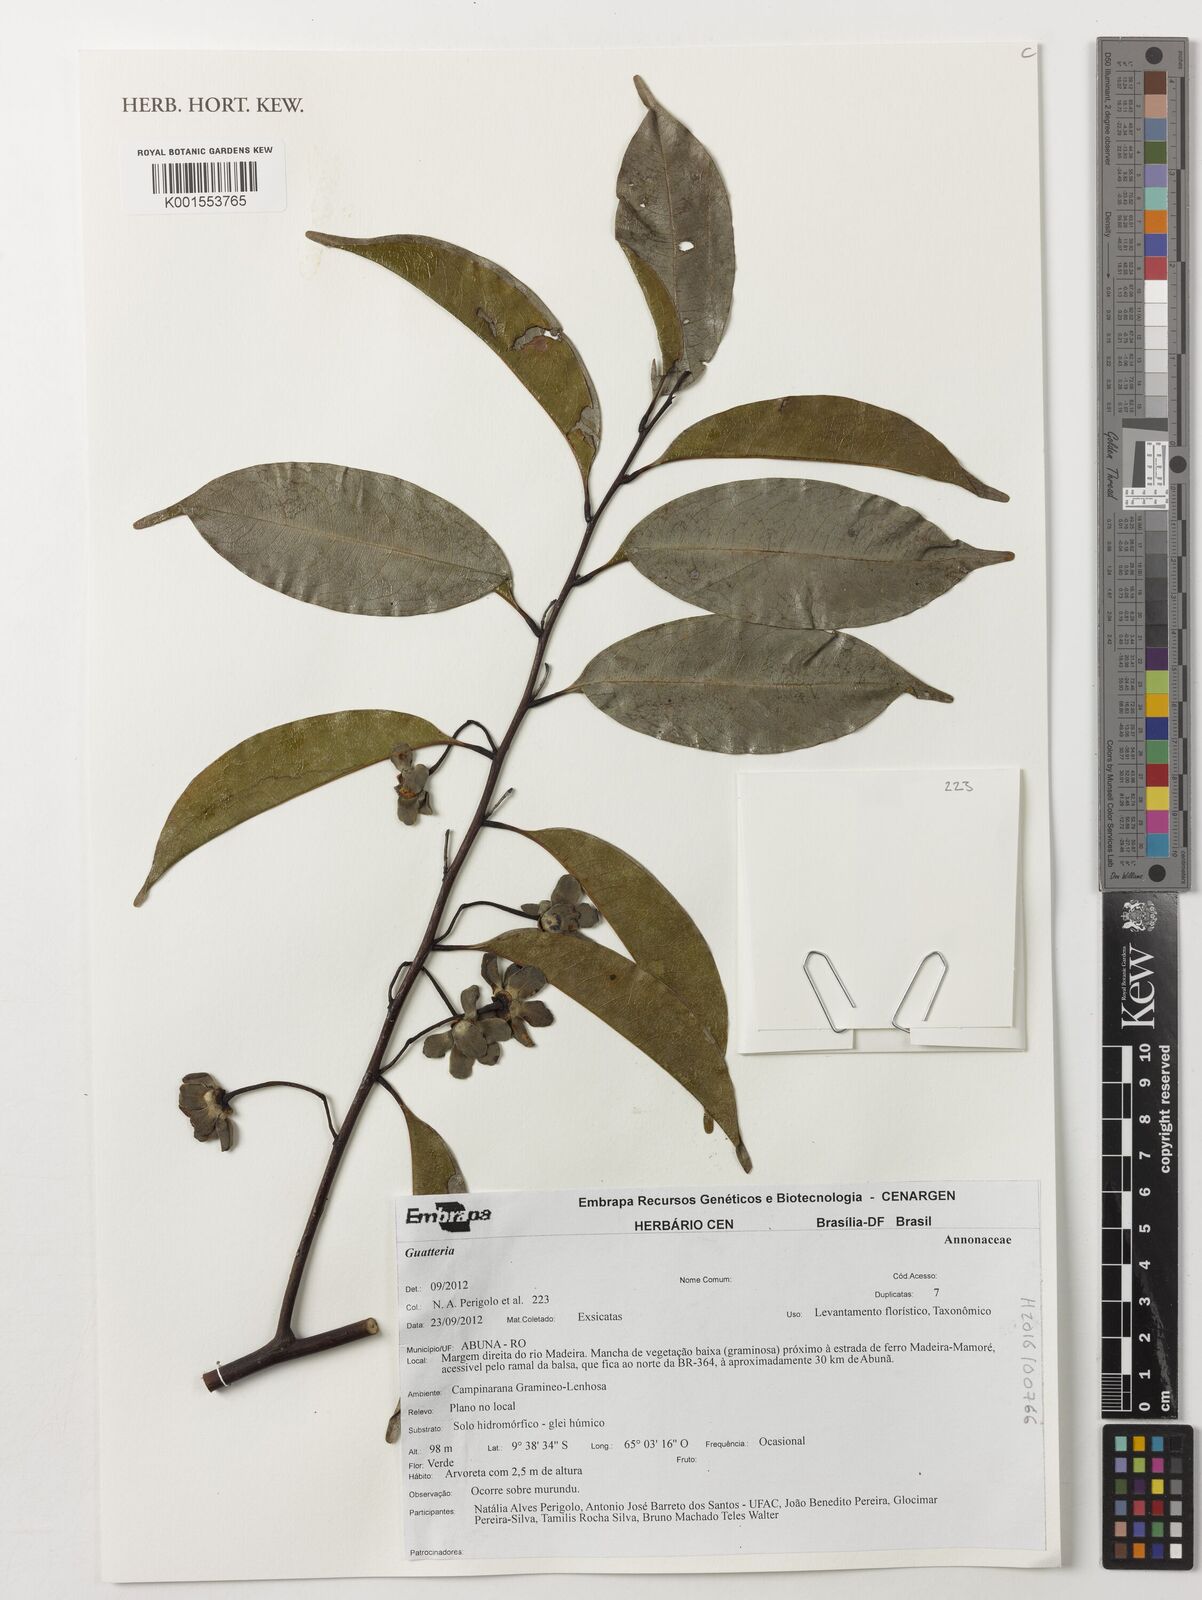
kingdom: Plantae
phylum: Tracheophyta
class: Magnoliopsida
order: Magnoliales
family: Annonaceae
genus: Guatteria
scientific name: Guatteria
